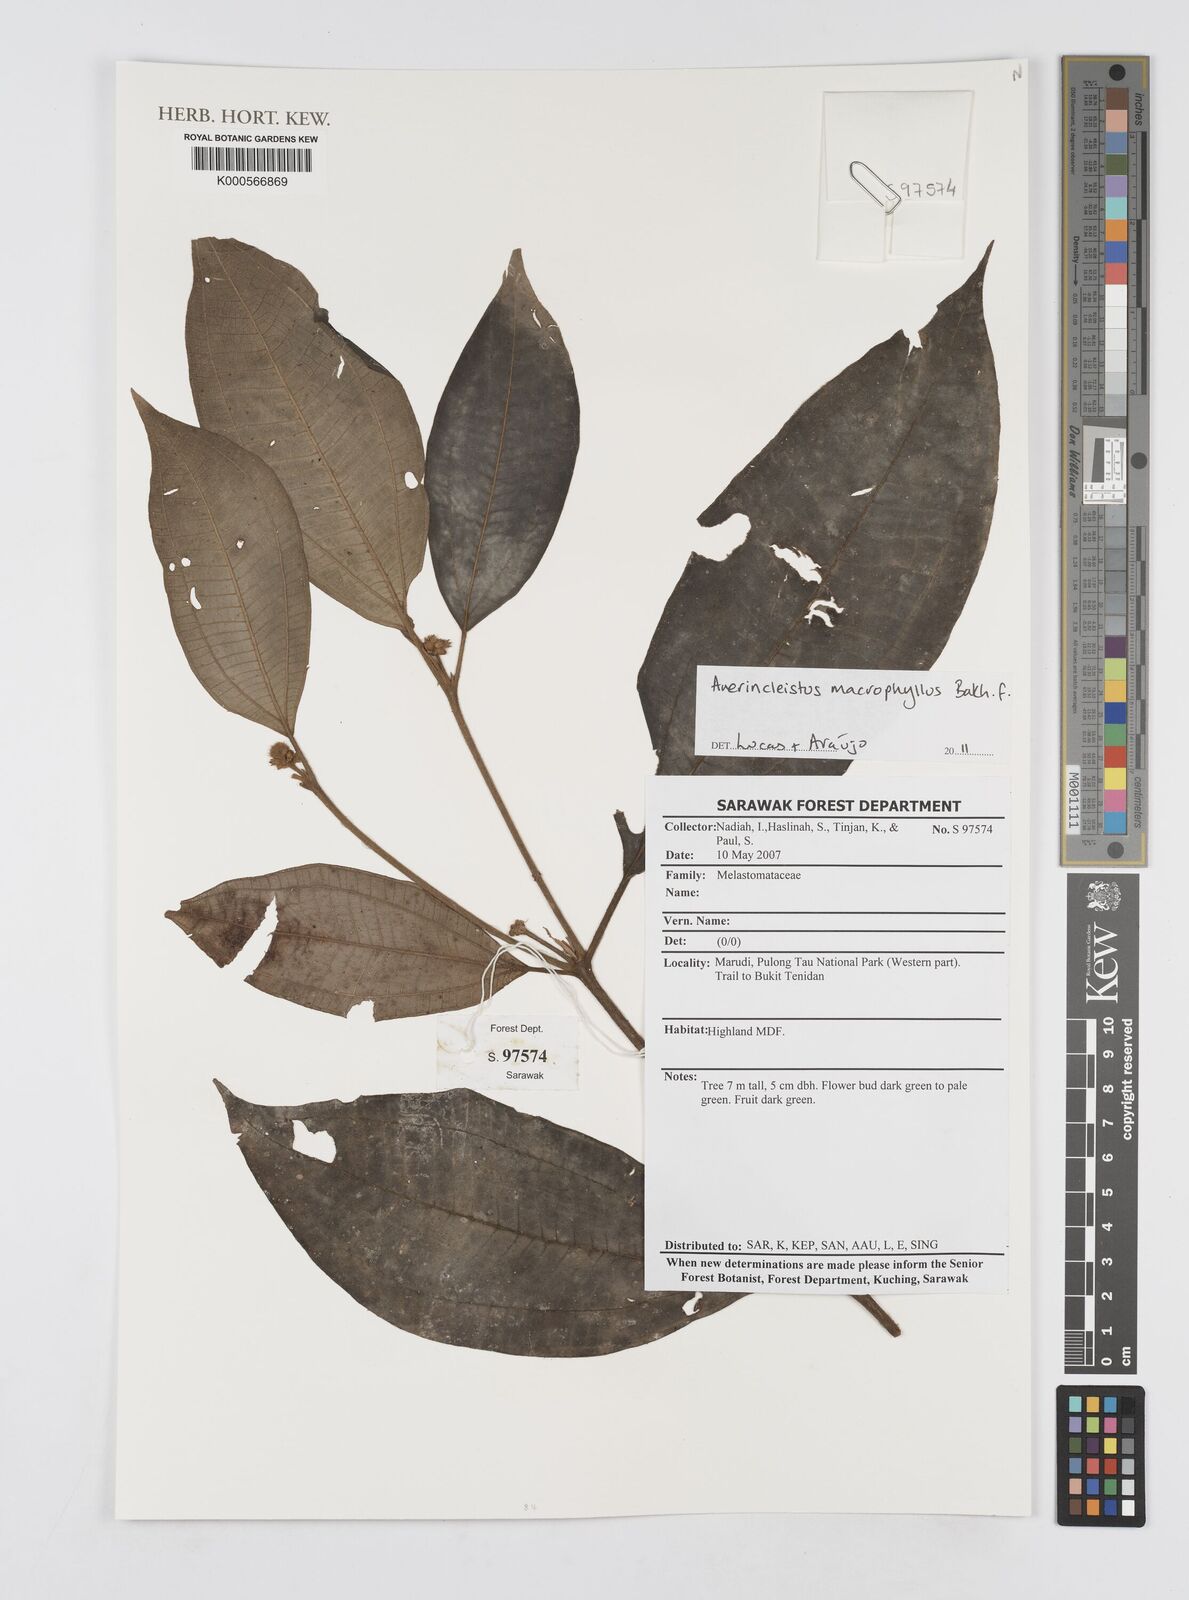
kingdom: Plantae
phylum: Tracheophyta
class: Magnoliopsida
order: Myrtales
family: Melastomataceae
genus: Anerincleistus
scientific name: Anerincleistus macrophyllus
